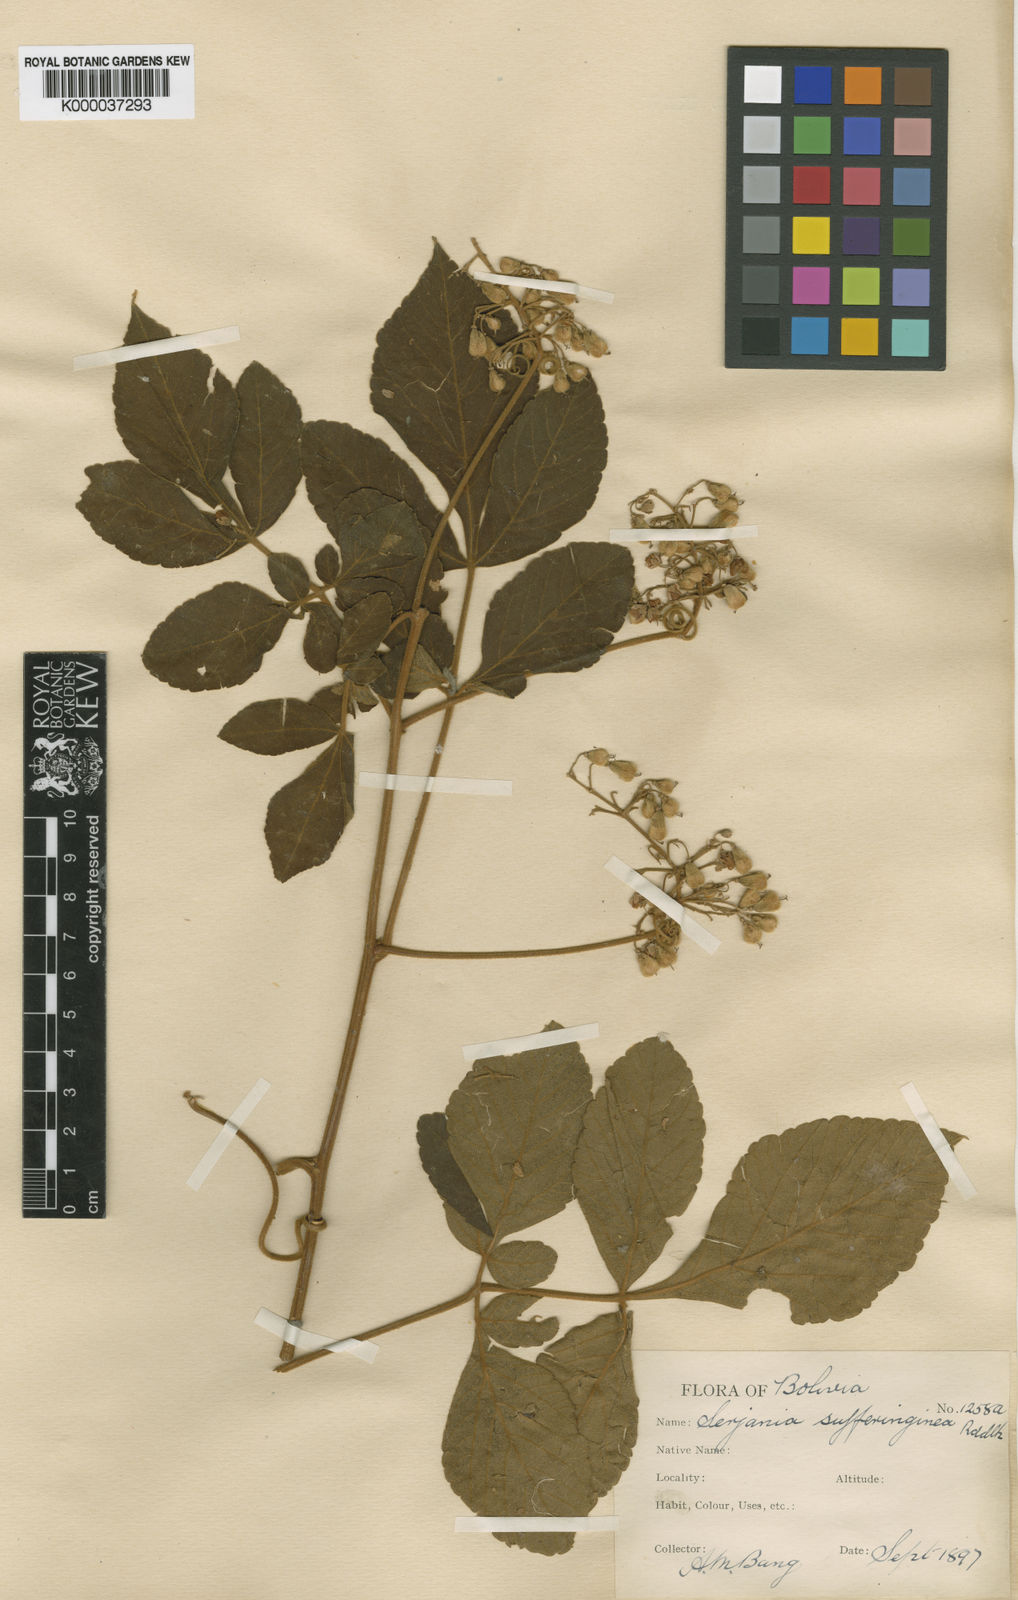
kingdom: Plantae
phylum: Tracheophyta
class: Magnoliopsida
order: Sapindales
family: Sapindaceae
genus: Serjania
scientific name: Serjania sufferruginea
